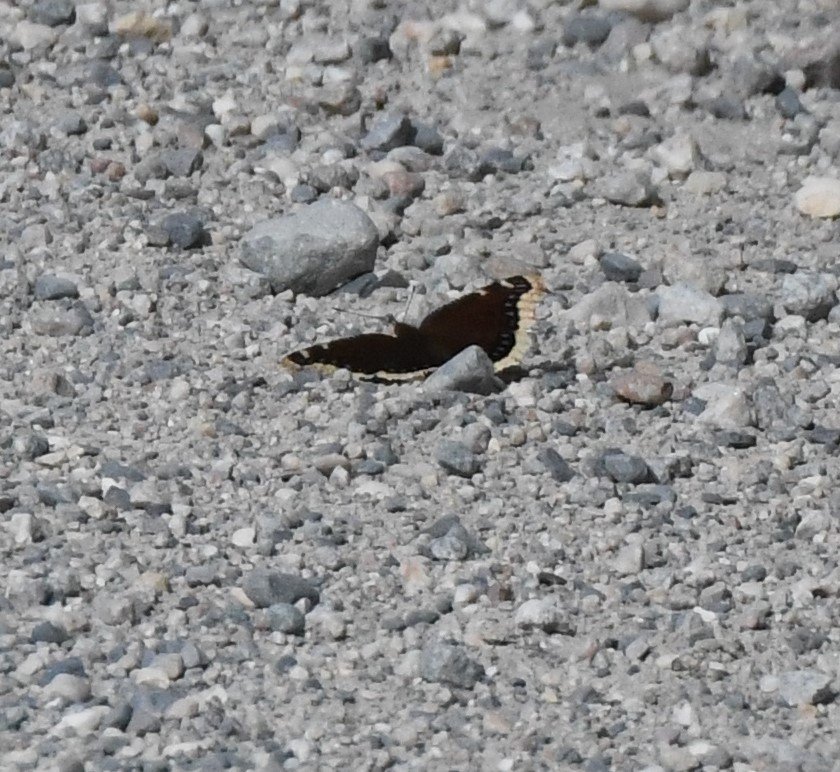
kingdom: Animalia
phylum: Arthropoda
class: Insecta
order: Lepidoptera
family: Nymphalidae
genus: Nymphalis
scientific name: Nymphalis antiopa
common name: Mourning Cloak
